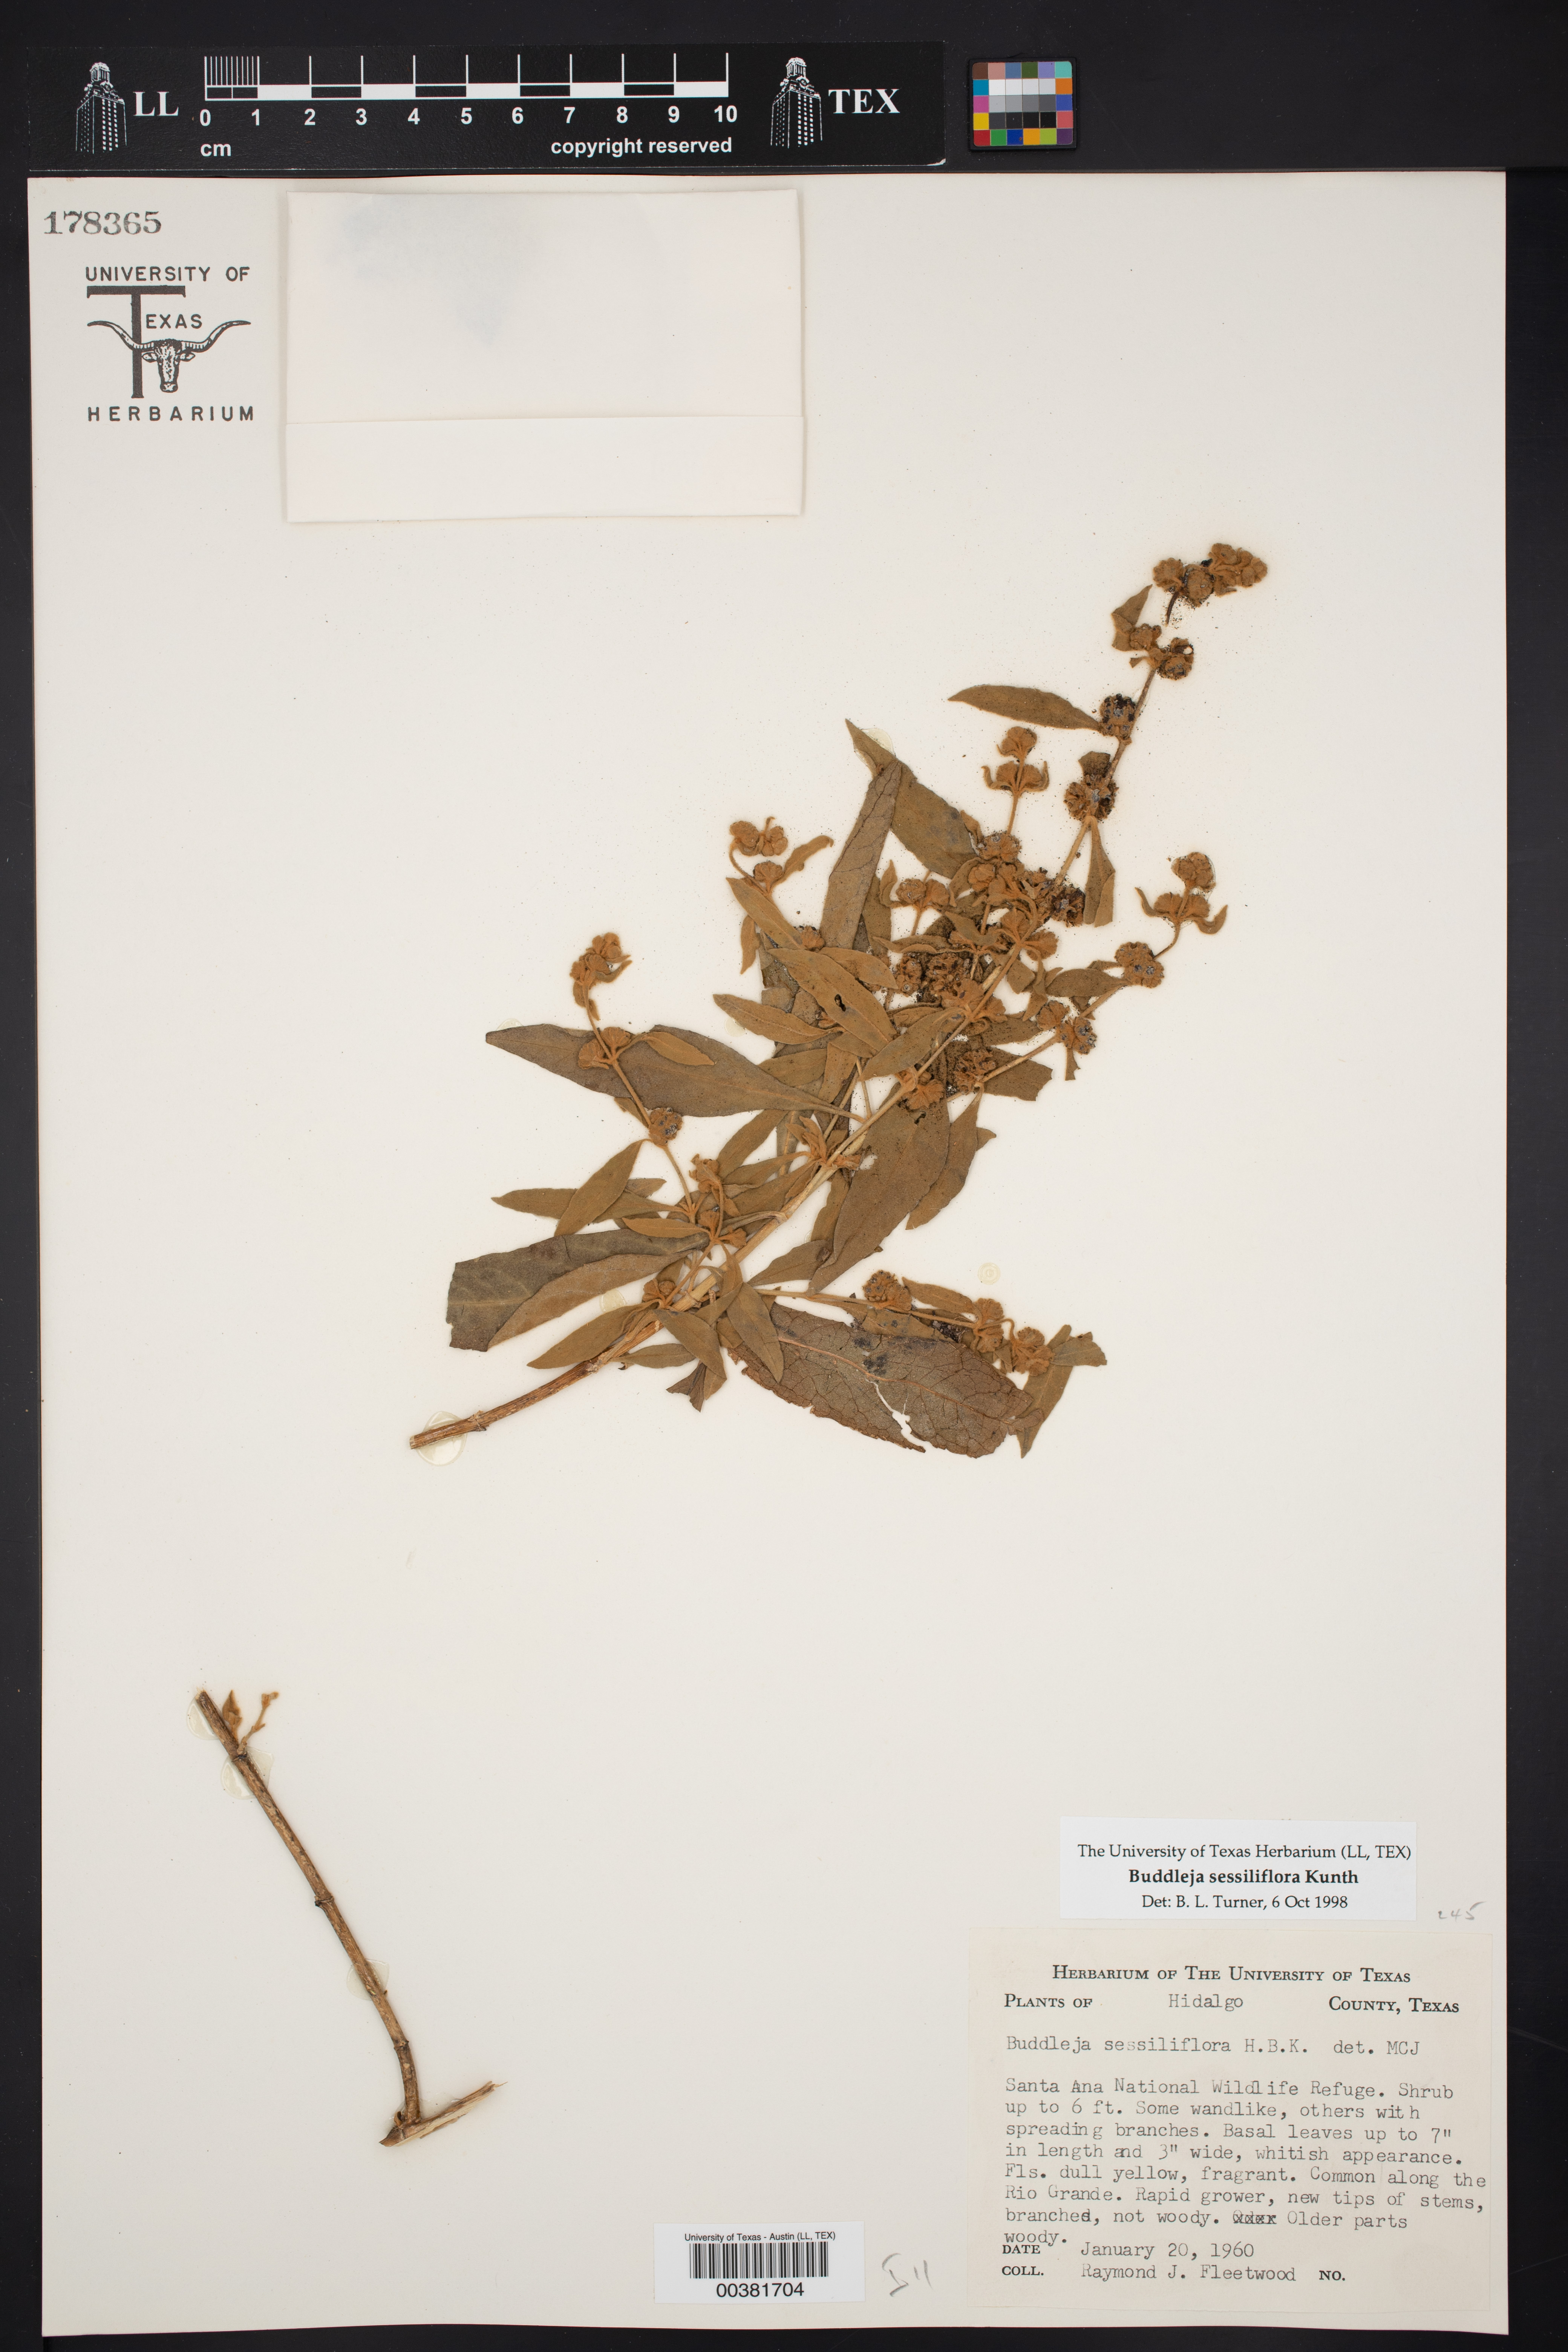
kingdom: Plantae
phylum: Tracheophyta
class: Magnoliopsida
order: Lamiales
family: Scrophulariaceae
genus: Buddleja
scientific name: Buddleja sessiliflora
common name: Rio grande butterfly-bush
